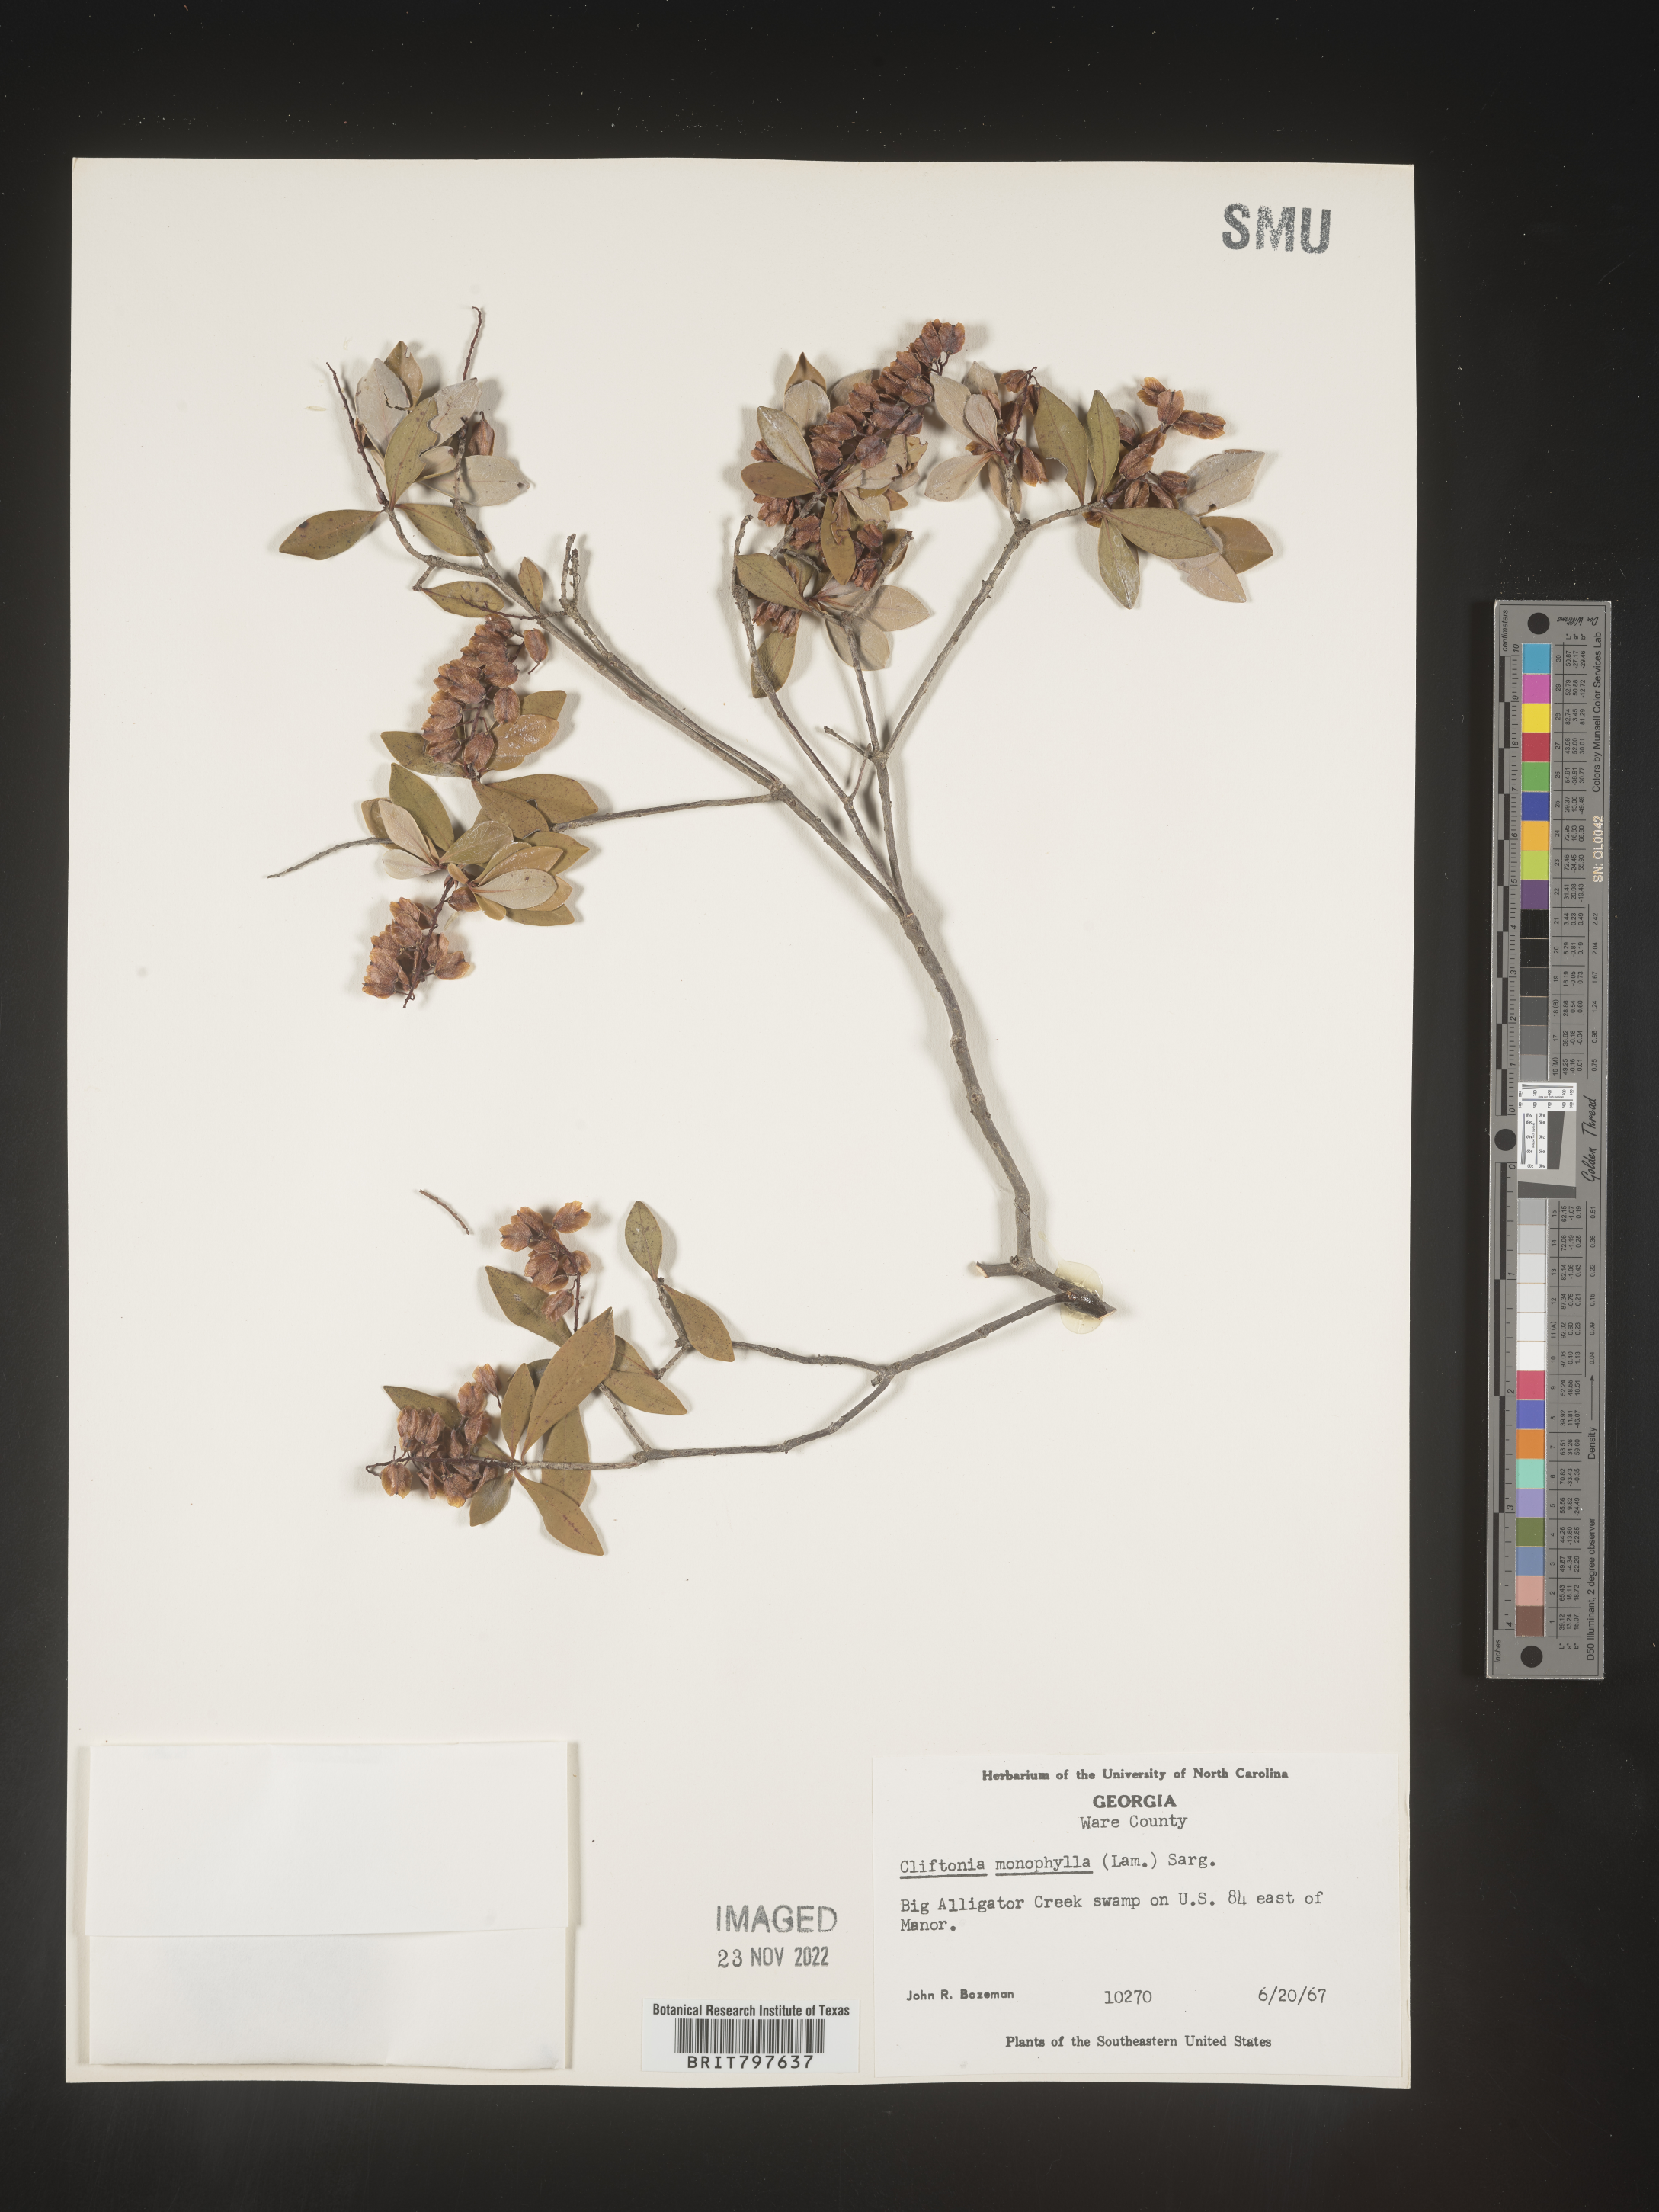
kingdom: Plantae
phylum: Tracheophyta
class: Magnoliopsida
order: Ericales
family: Cyrillaceae
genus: Cliftonia
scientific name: Cliftonia monophylla
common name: Titi
